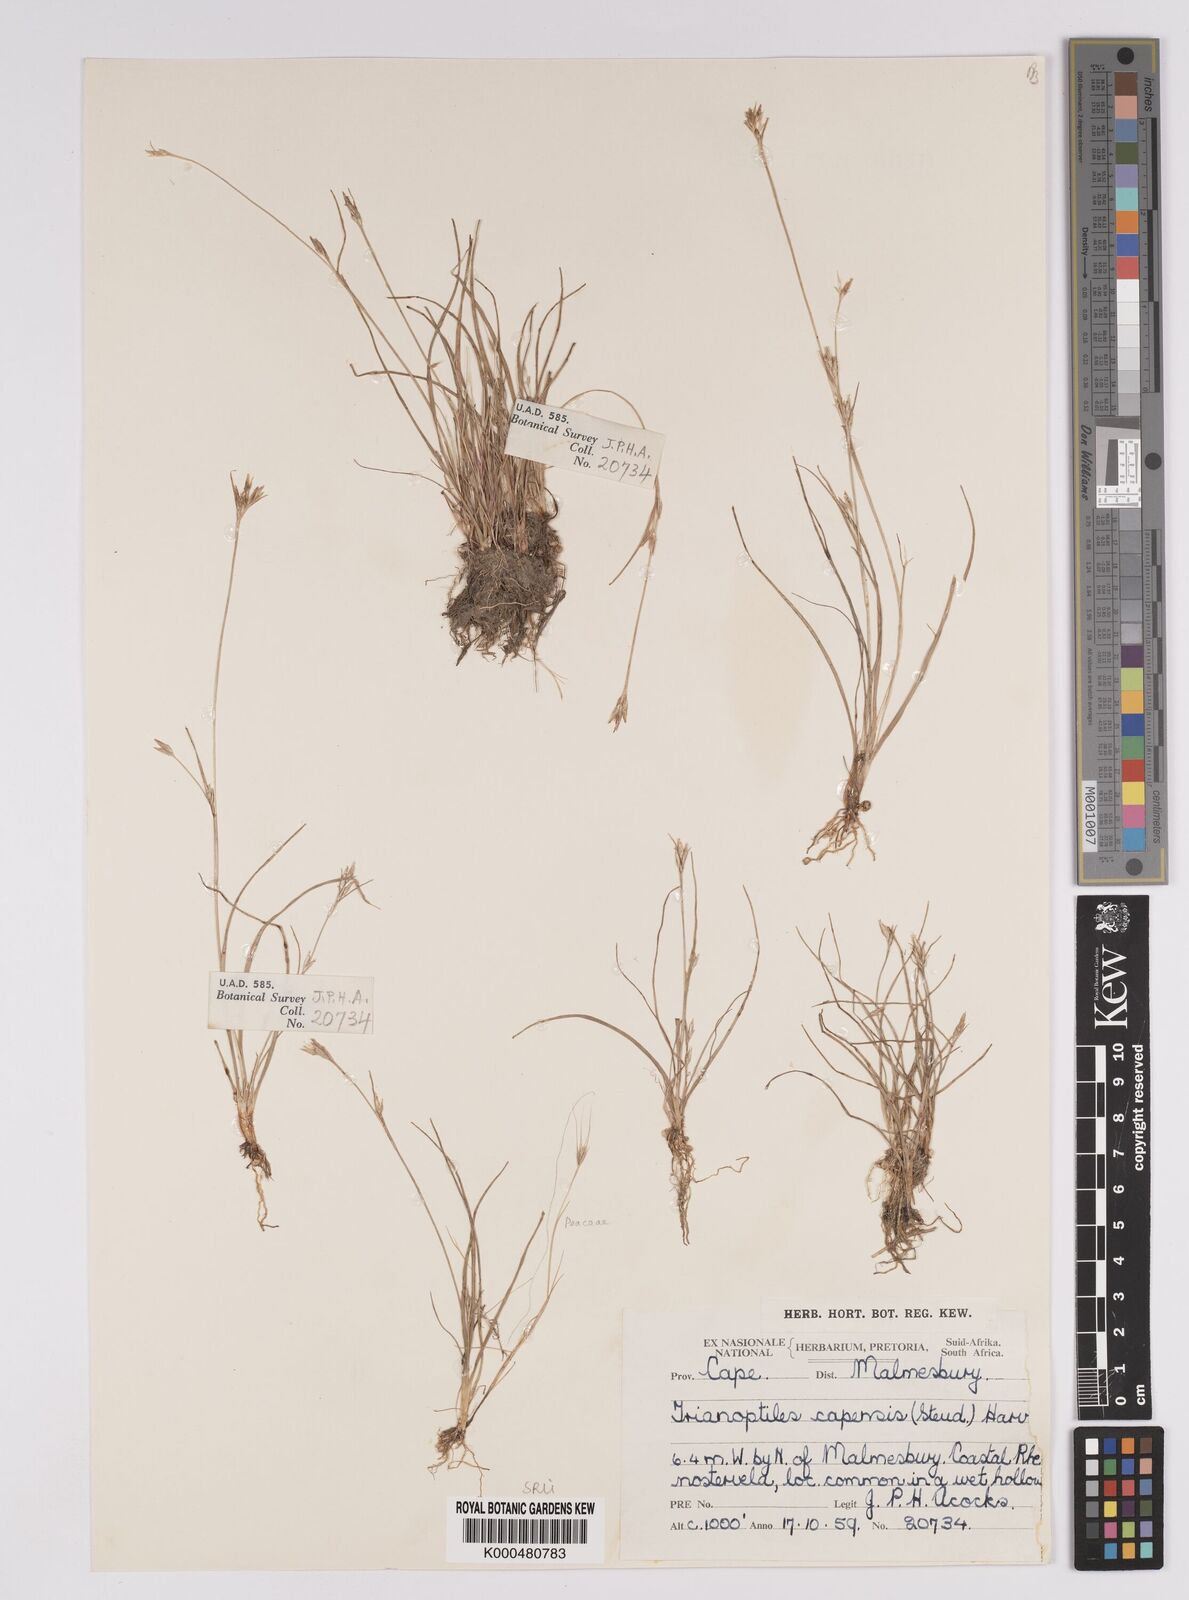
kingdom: Plantae
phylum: Tracheophyta
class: Liliopsida
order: Poales
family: Cyperaceae
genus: Trianoptiles
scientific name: Trianoptiles capensis
